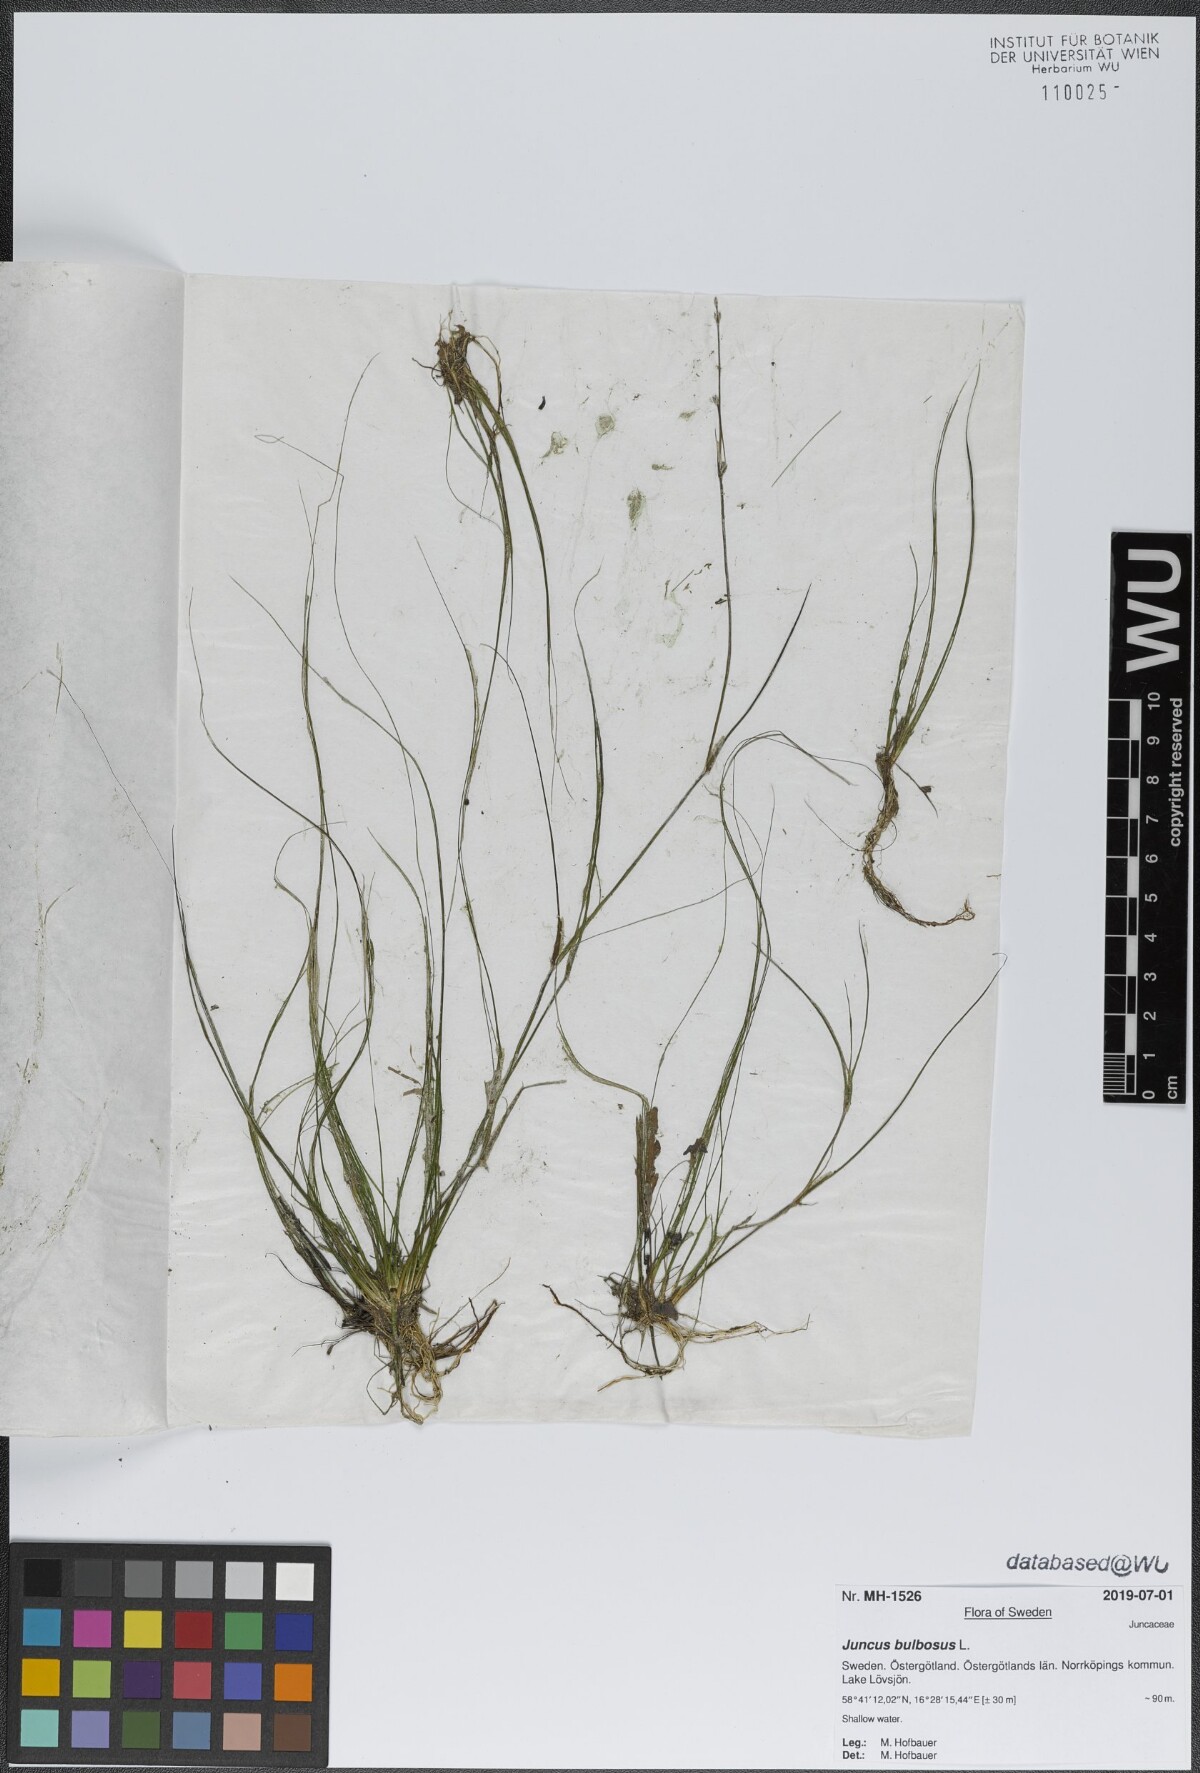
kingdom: Plantae
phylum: Tracheophyta
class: Liliopsida
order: Poales
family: Juncaceae
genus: Juncus
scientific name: Juncus bulbosus
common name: Bulbous rush
